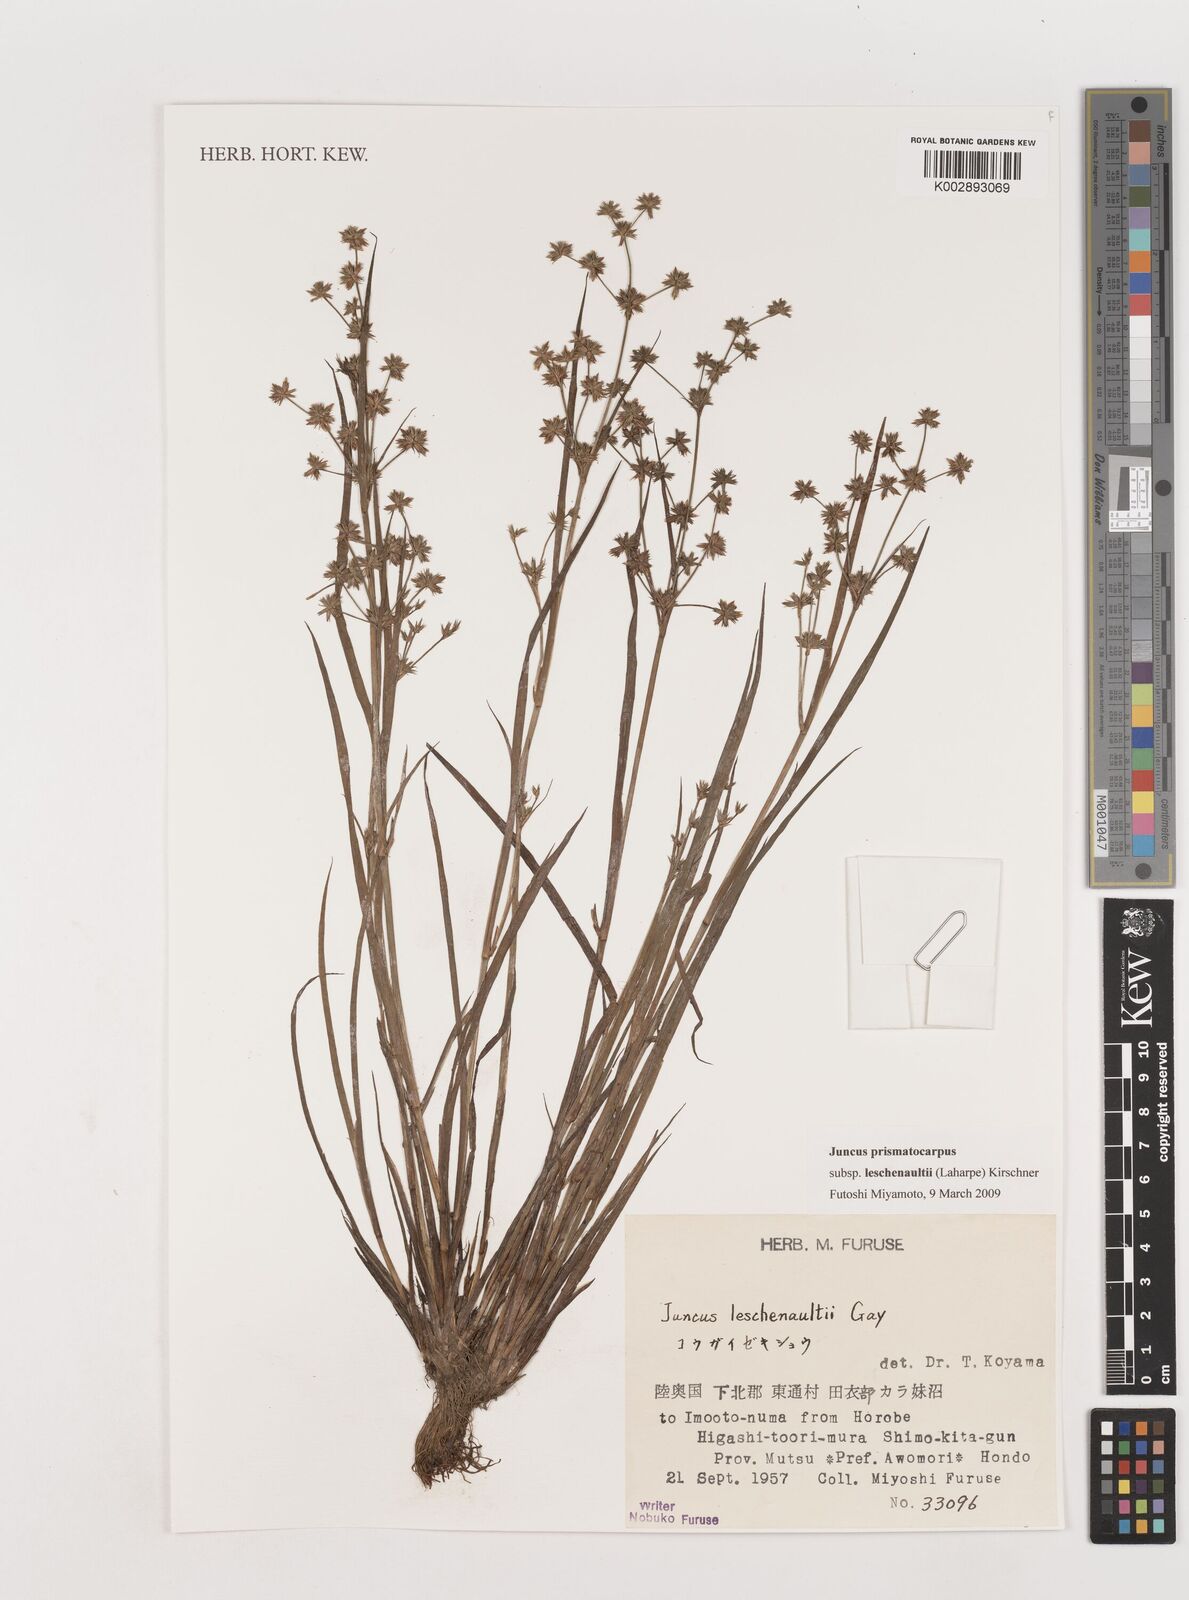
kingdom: Plantae
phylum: Tracheophyta
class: Liliopsida
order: Poales
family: Juncaceae
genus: Juncus
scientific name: Juncus prismatocarpus
